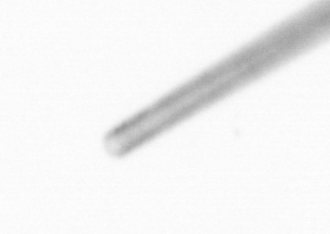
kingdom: Chromista
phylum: Ochrophyta
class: Bacillariophyceae
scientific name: Bacillariophyceae
